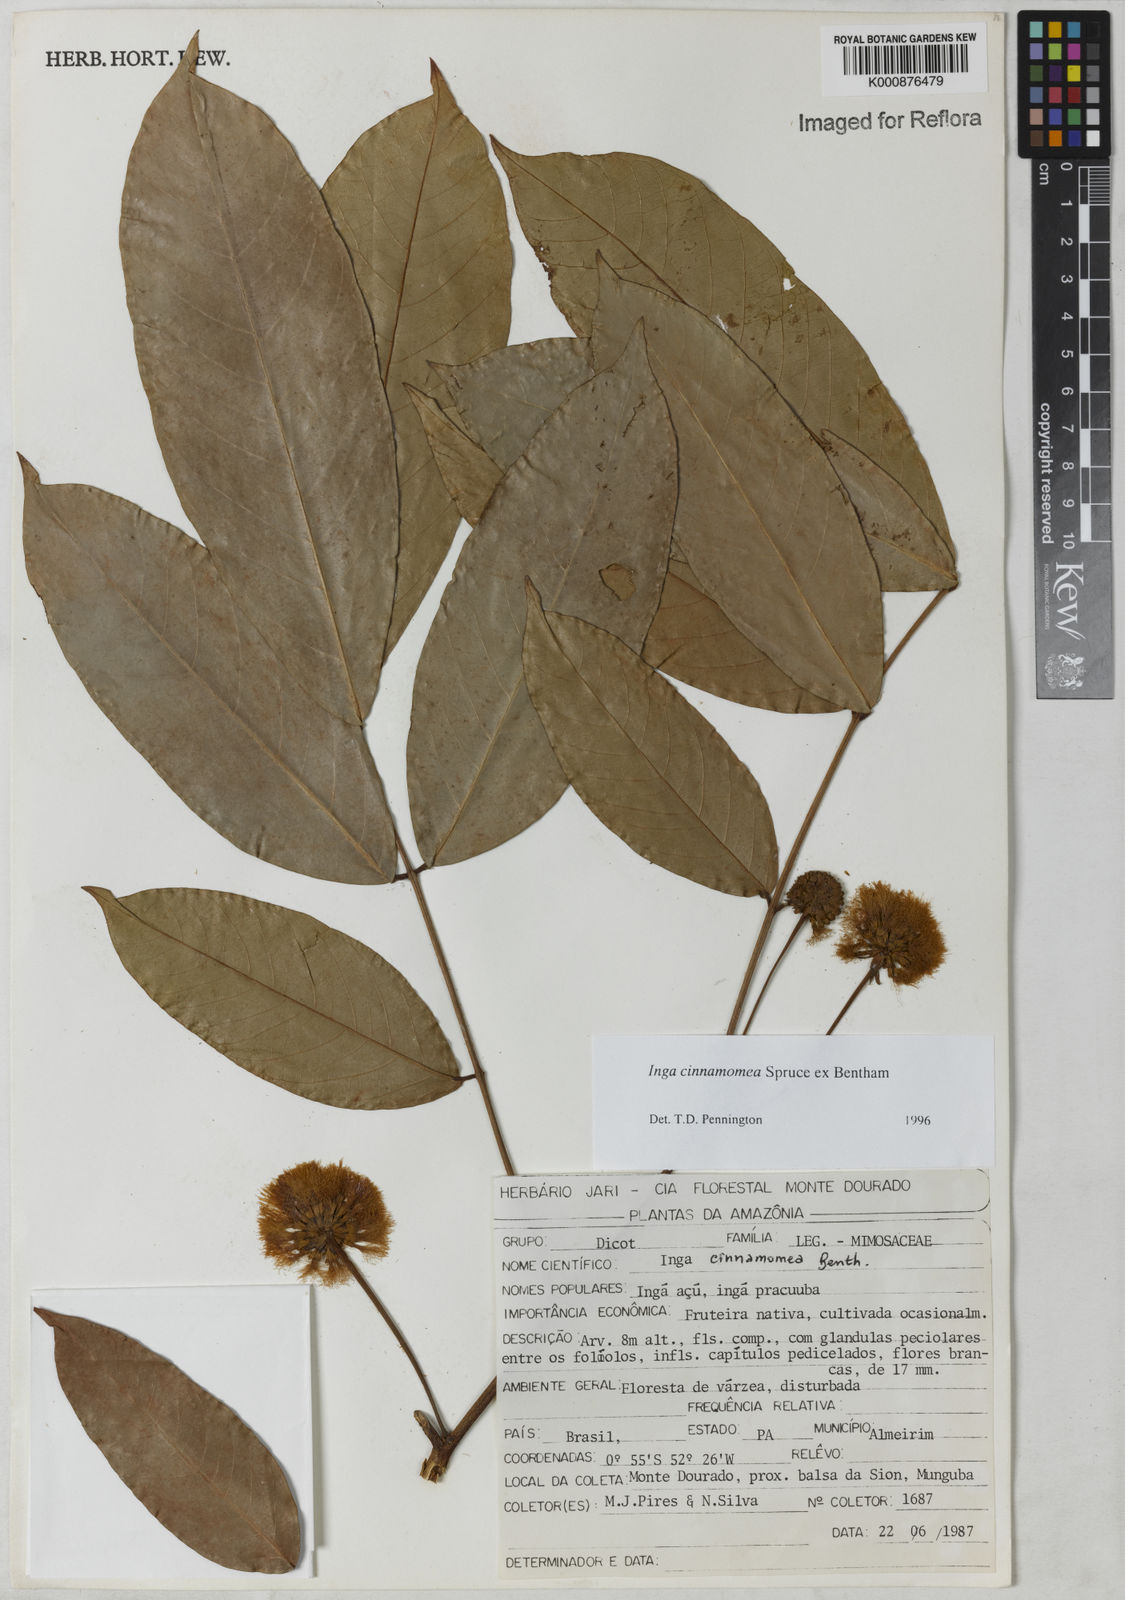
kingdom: Plantae
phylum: Tracheophyta
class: Magnoliopsida
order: Fabales
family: Fabaceae
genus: Inga
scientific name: Inga cinnamomea
